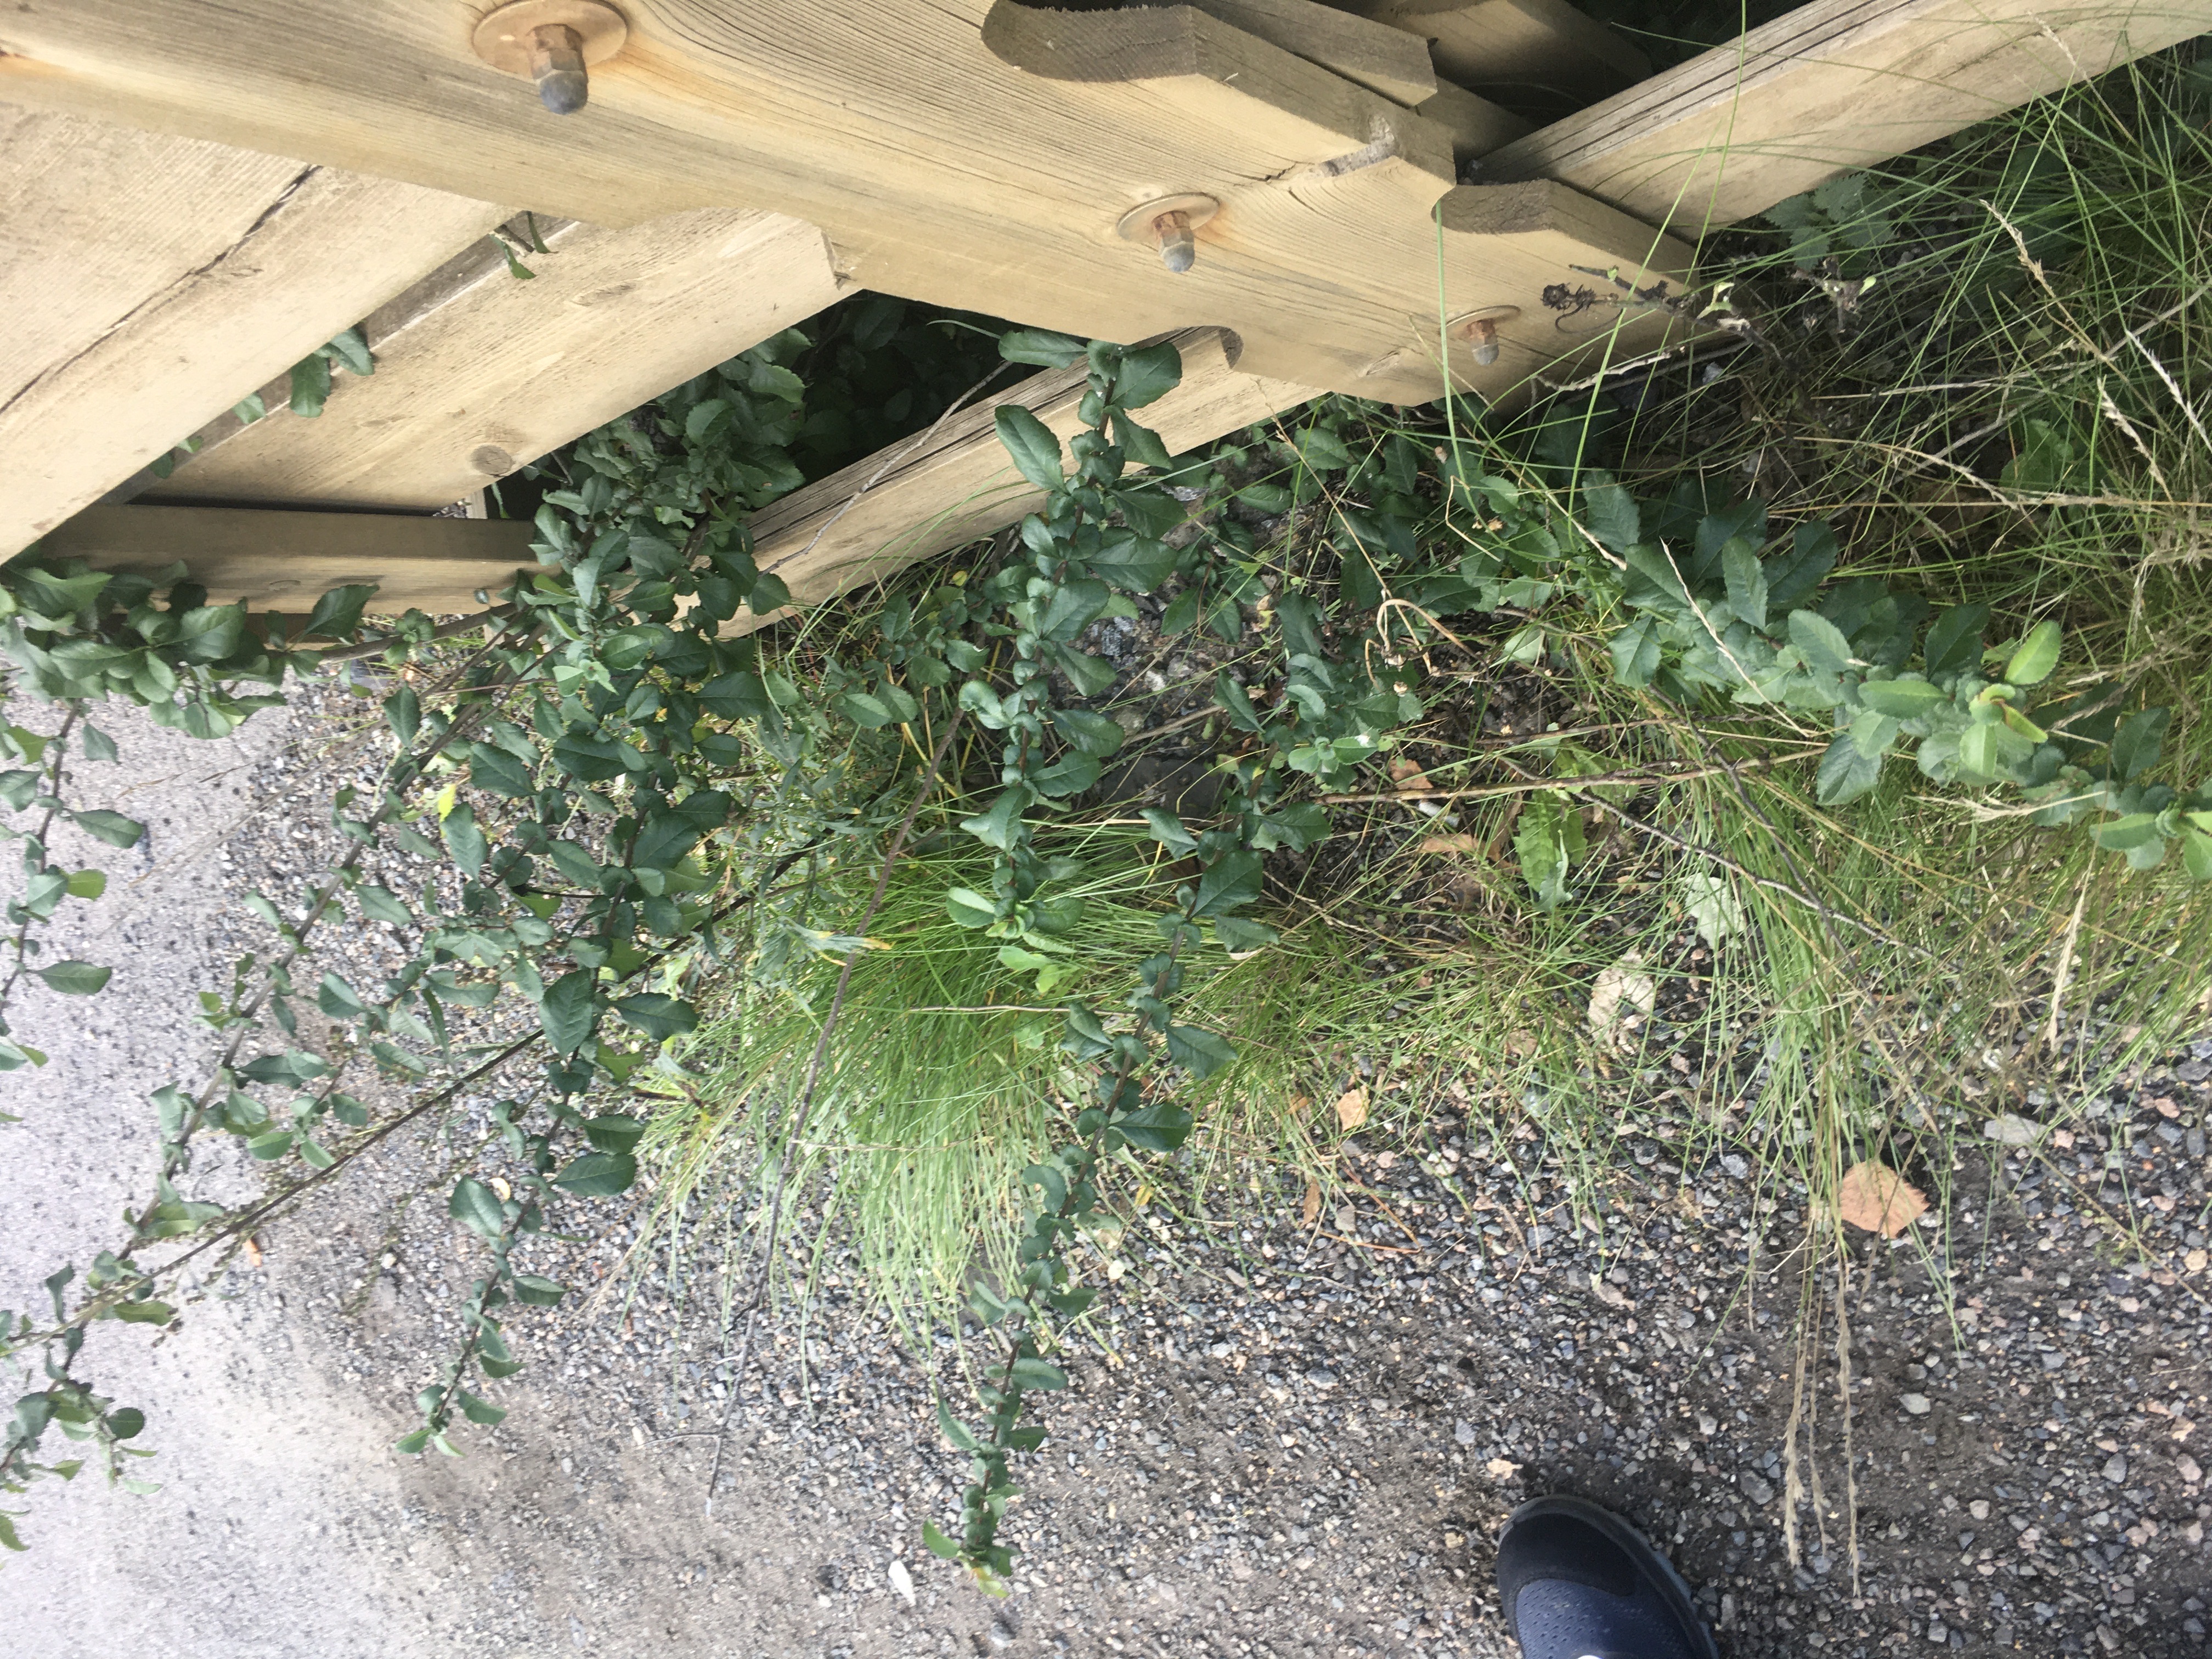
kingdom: Plantae
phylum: Tracheophyta
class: Magnoliopsida
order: Rosales
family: Rosaceae
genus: Chaenomeles
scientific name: Chaenomeles japonica
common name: småildkvede
